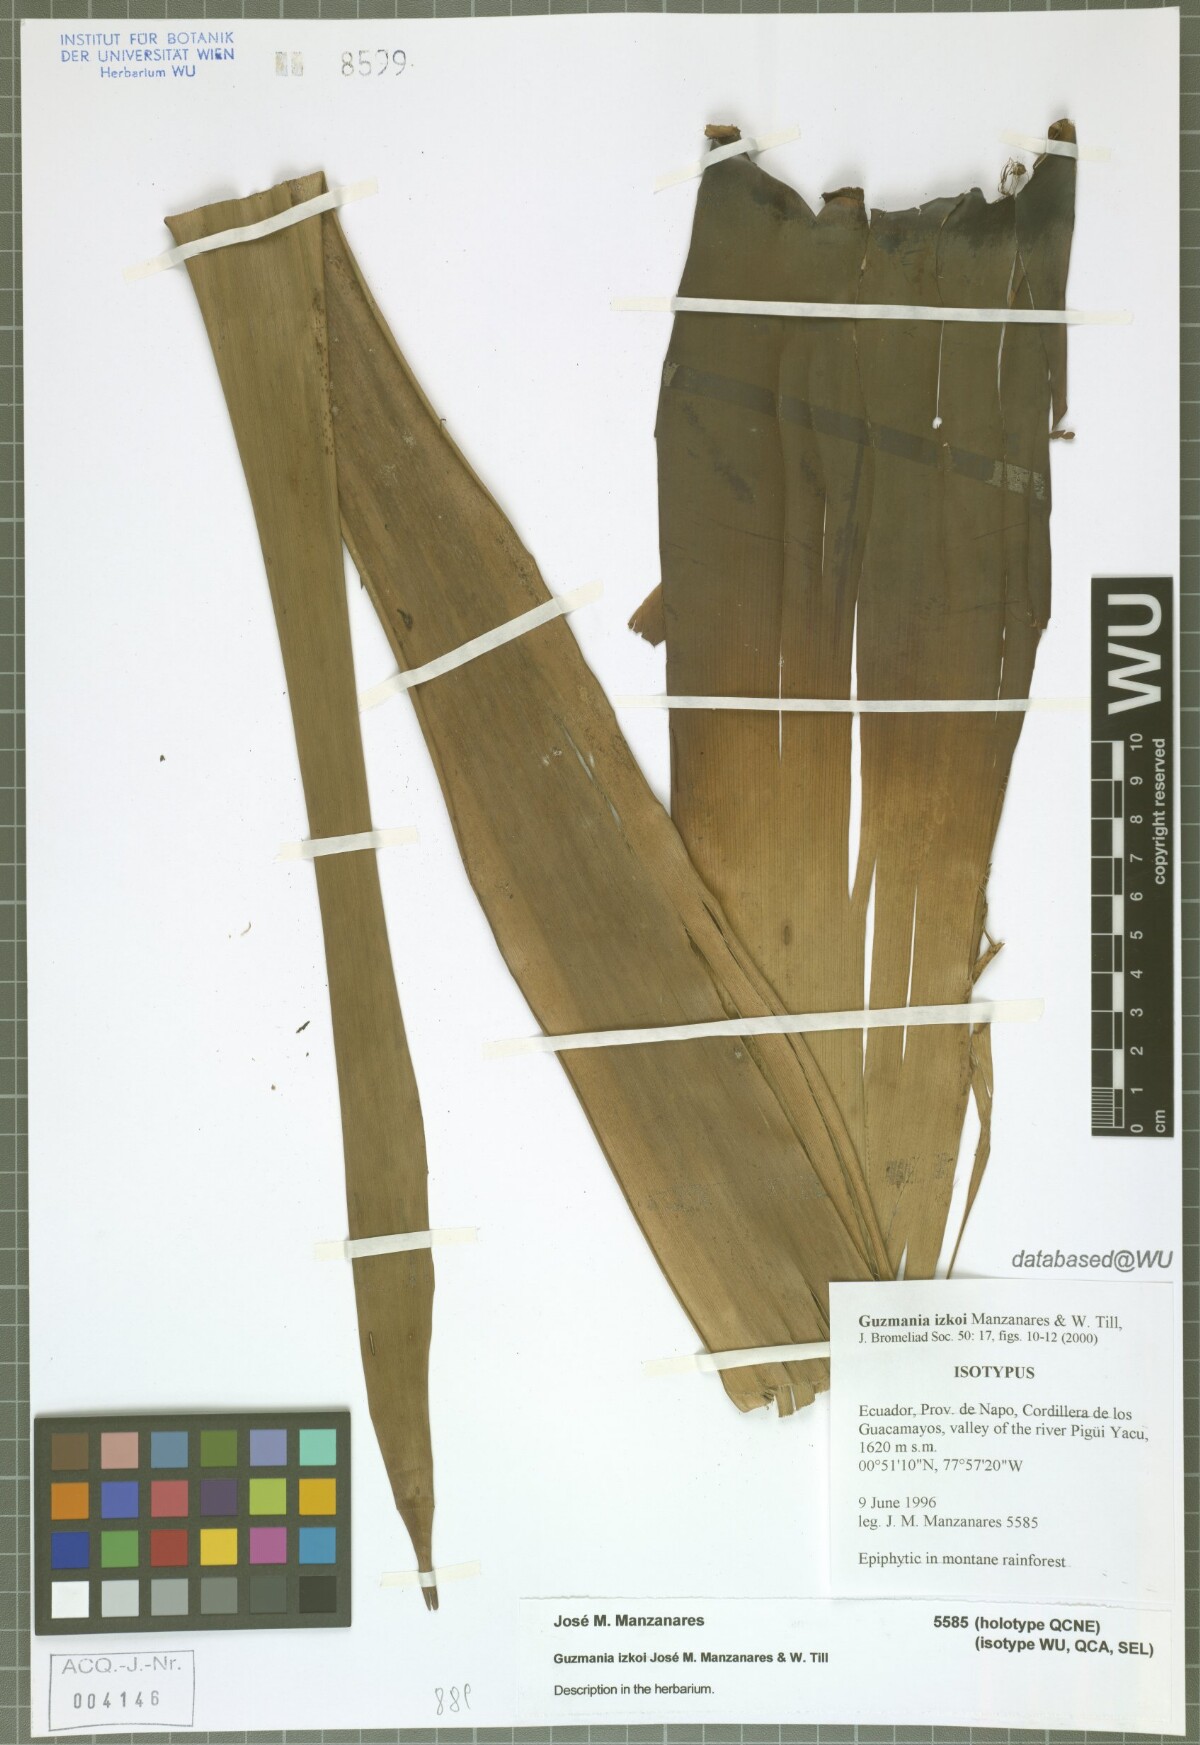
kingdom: Plantae
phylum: Tracheophyta
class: Liliopsida
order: Poales
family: Bromeliaceae
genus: Guzmania
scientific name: Guzmania izkoi
